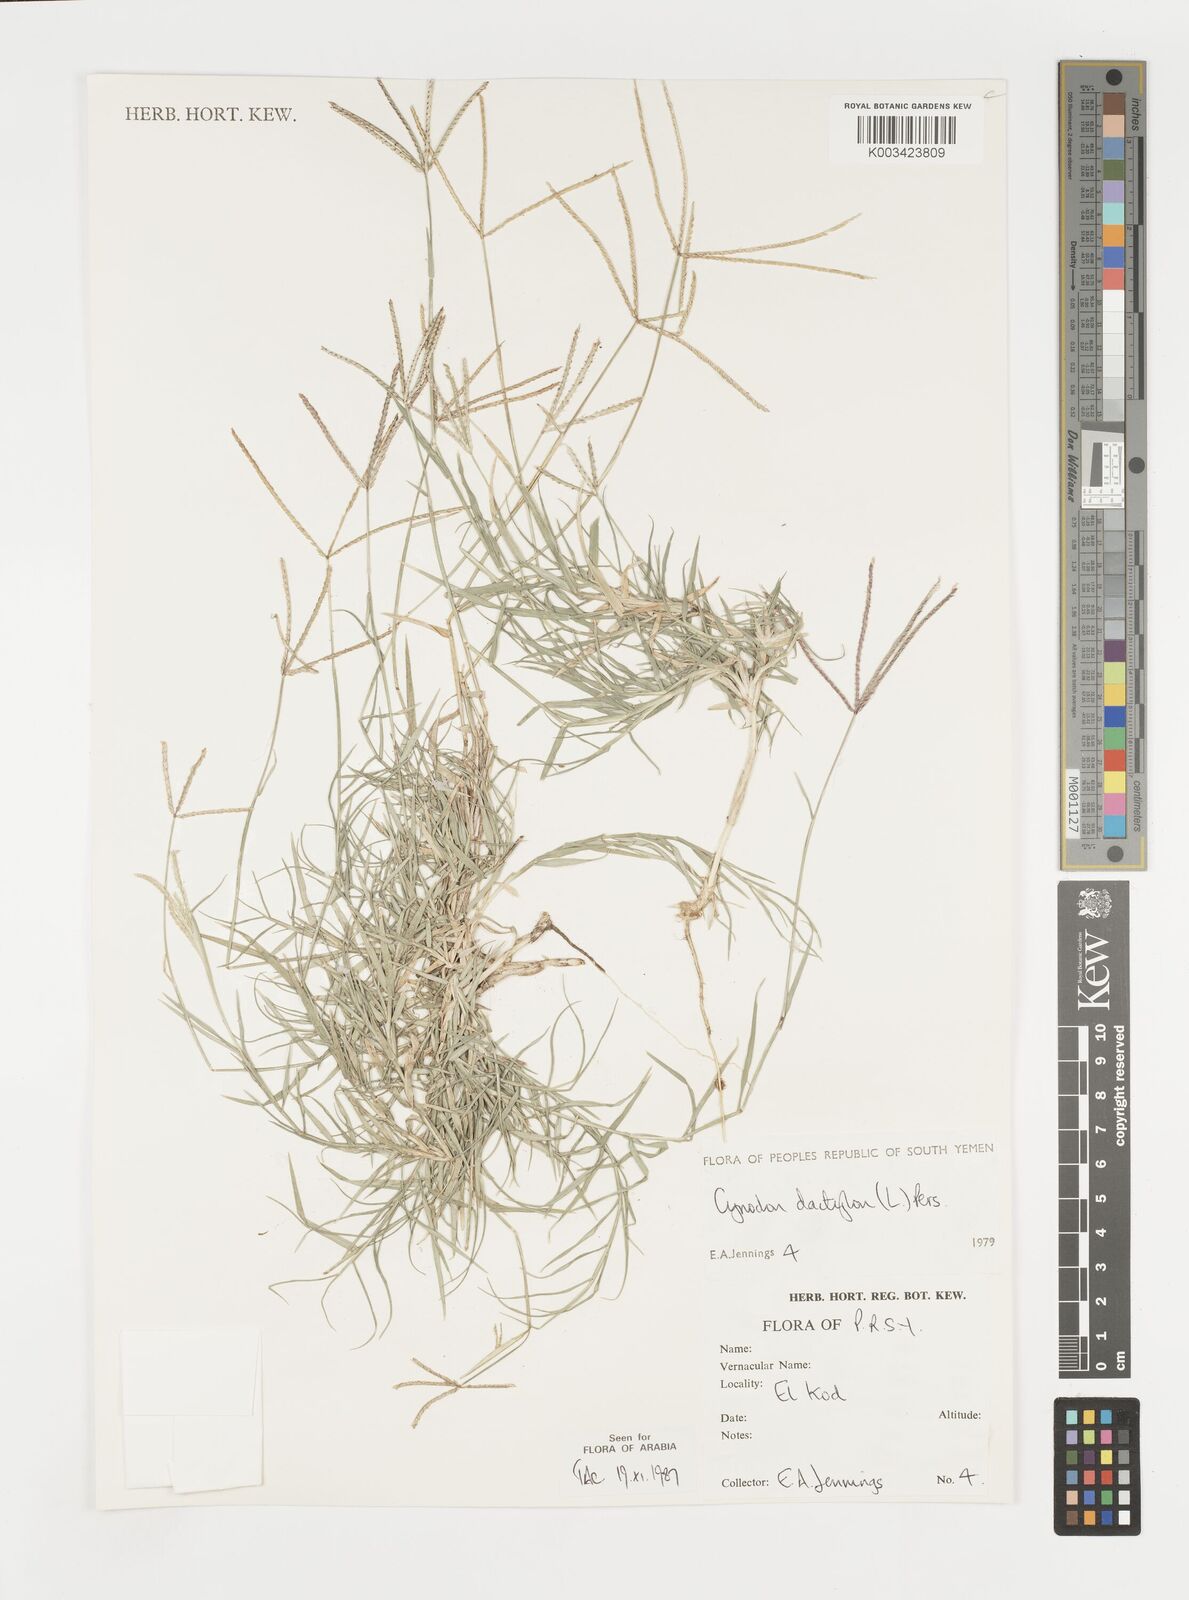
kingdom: Plantae
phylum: Tracheophyta
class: Liliopsida
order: Poales
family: Poaceae
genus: Cynodon
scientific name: Cynodon dactylon
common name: Bermuda grass
